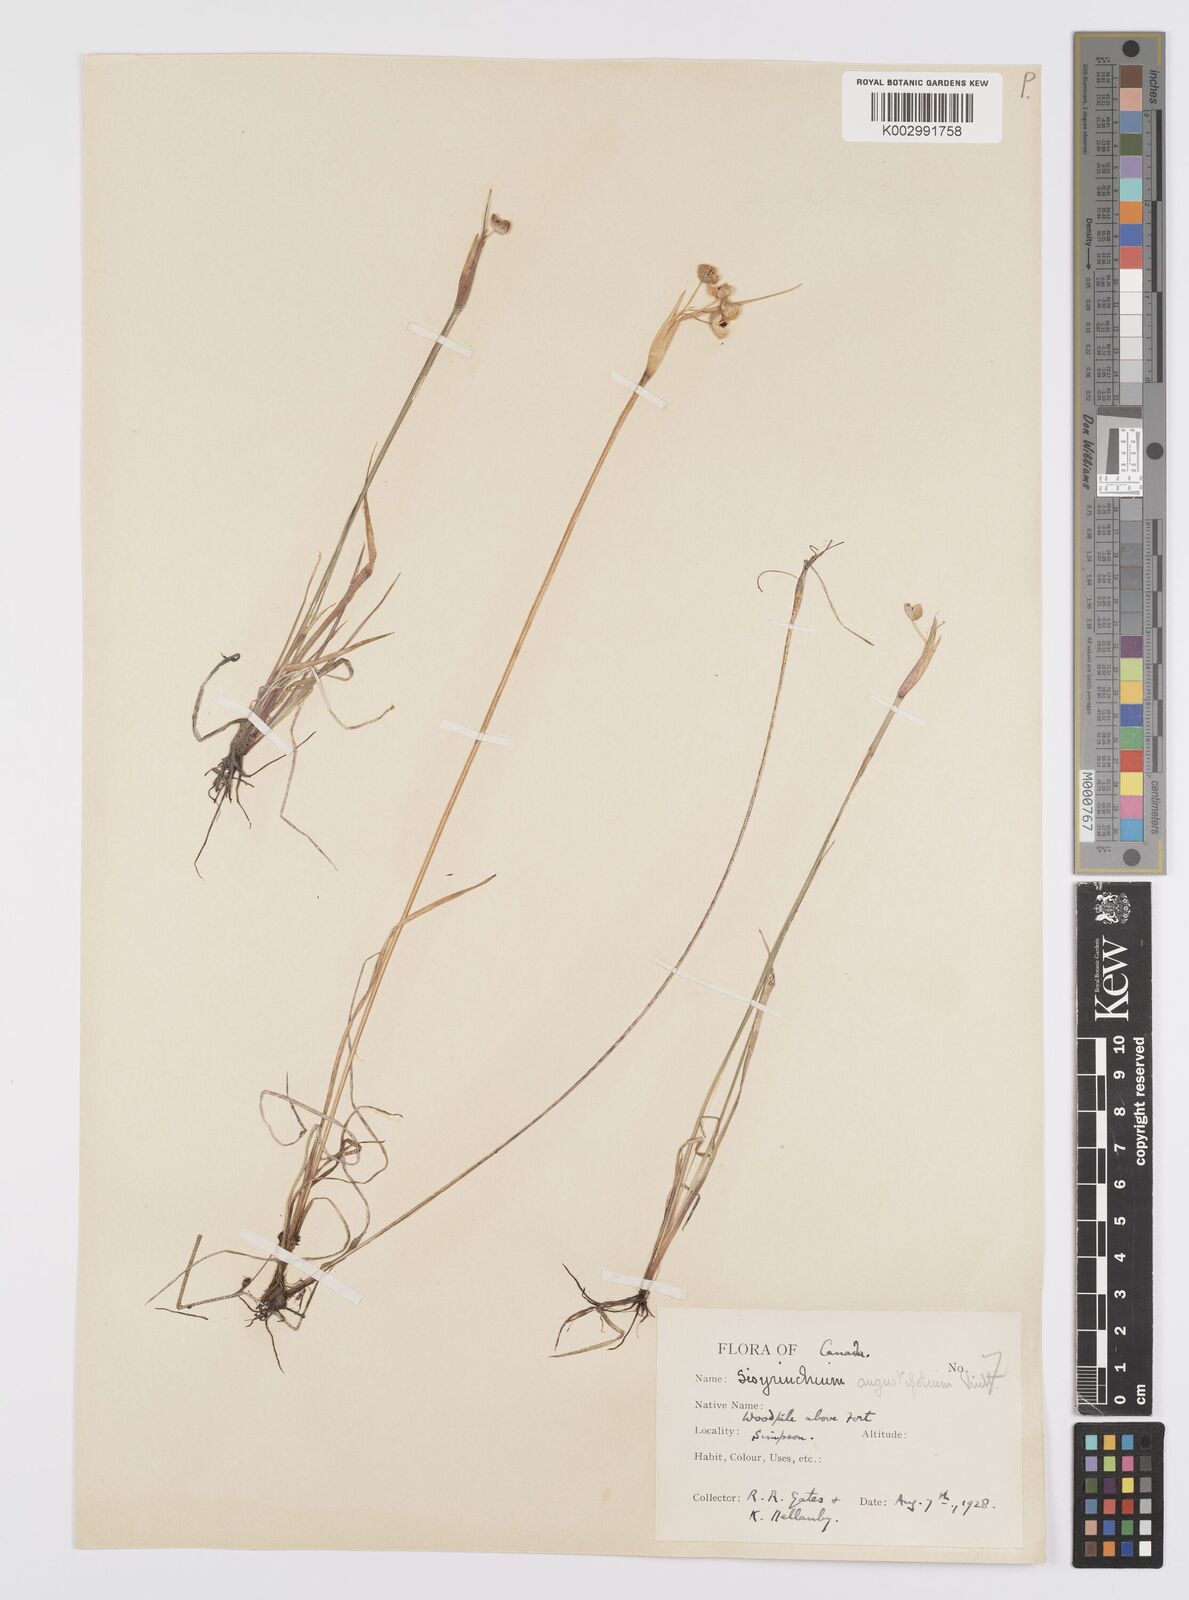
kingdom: Plantae
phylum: Tracheophyta
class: Liliopsida
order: Asparagales
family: Iridaceae
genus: Sisyrinchium
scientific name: Sisyrinchium bermudiana
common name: Blue-eyed-grass
